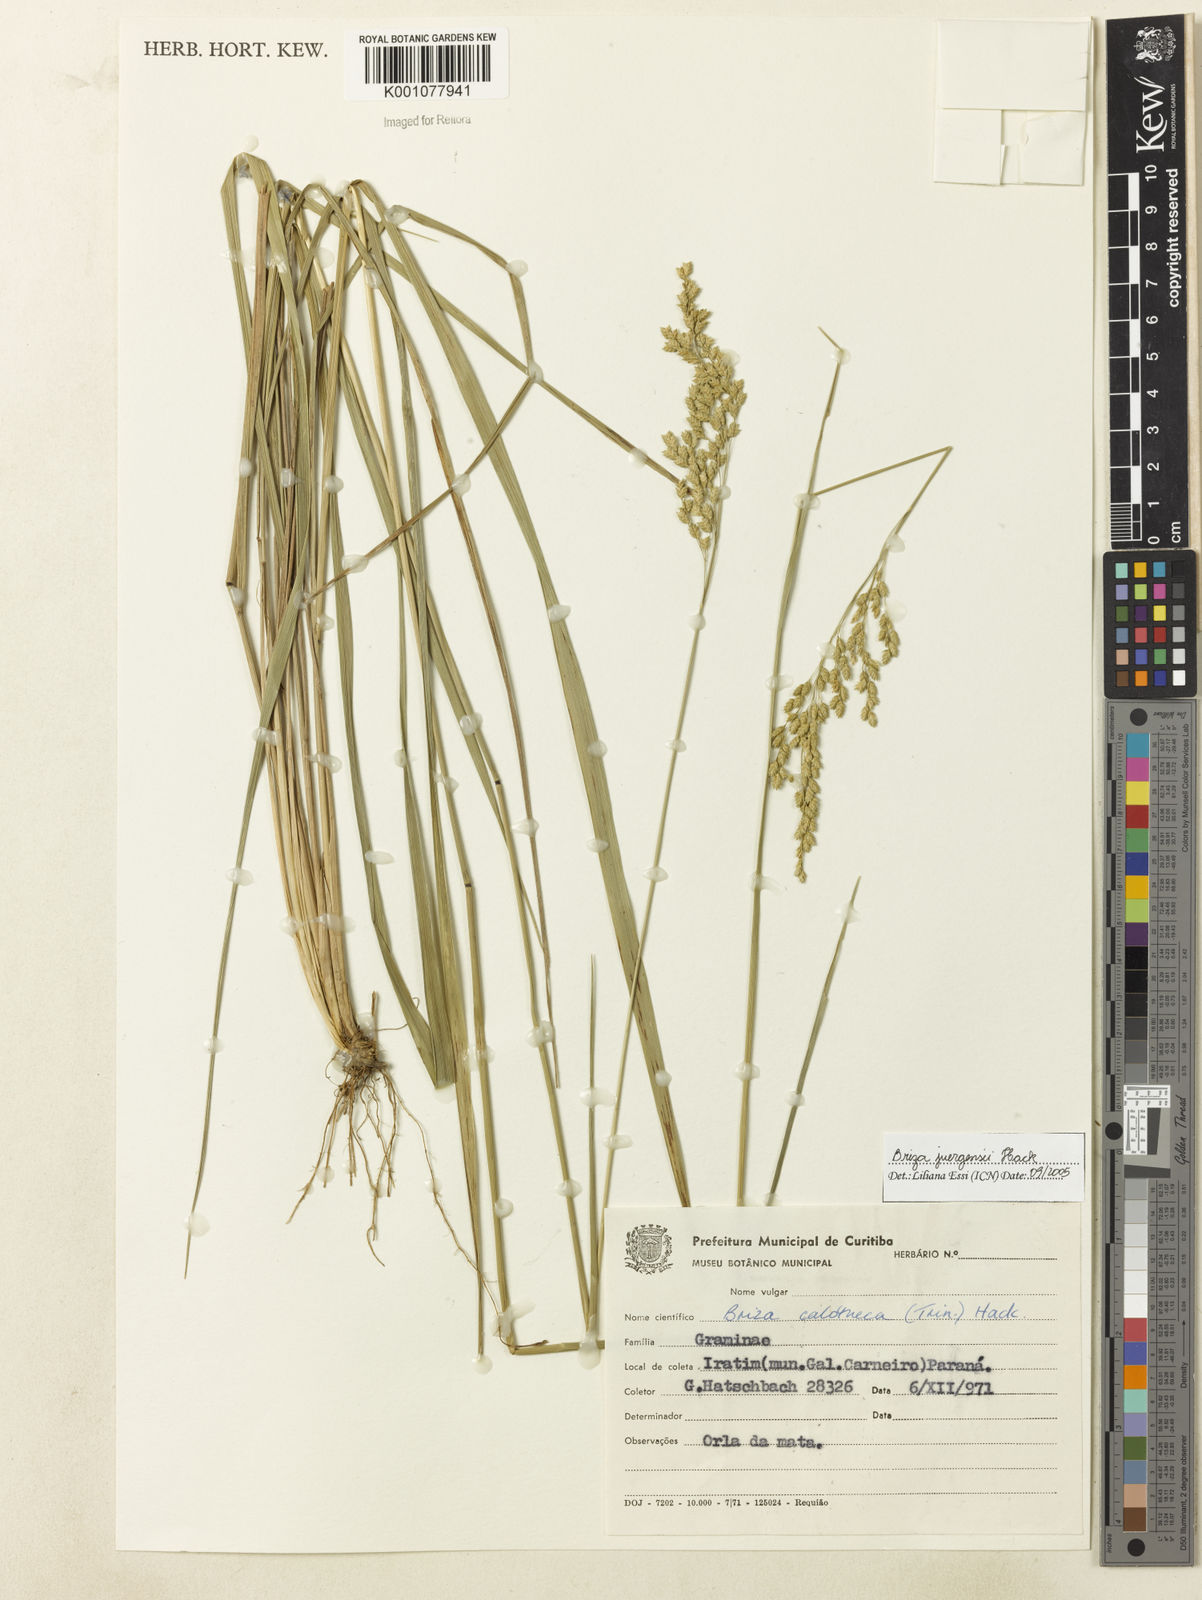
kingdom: Plantae
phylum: Tracheophyta
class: Liliopsida
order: Poales
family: Poaceae
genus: Poidium
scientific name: Poidium juergensii
